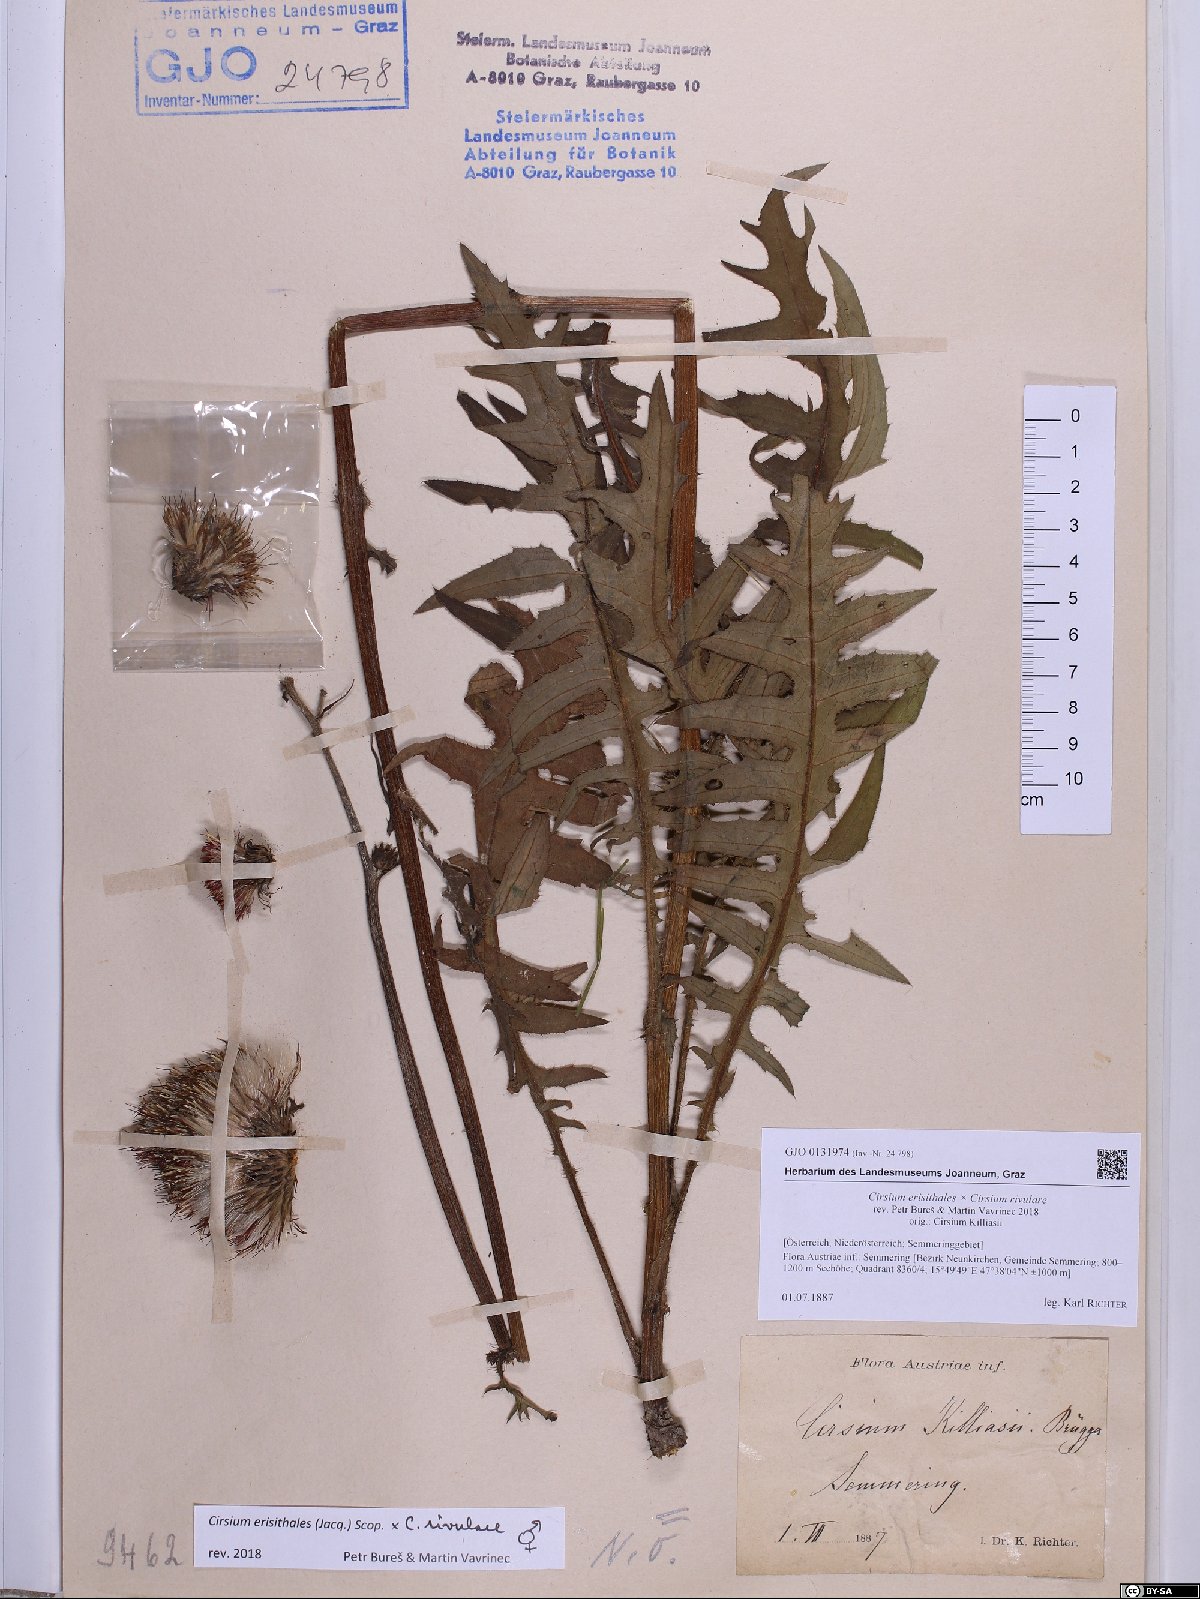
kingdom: Plantae
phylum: Tracheophyta
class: Magnoliopsida
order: Asterales
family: Asteraceae
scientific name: Asteraceae
